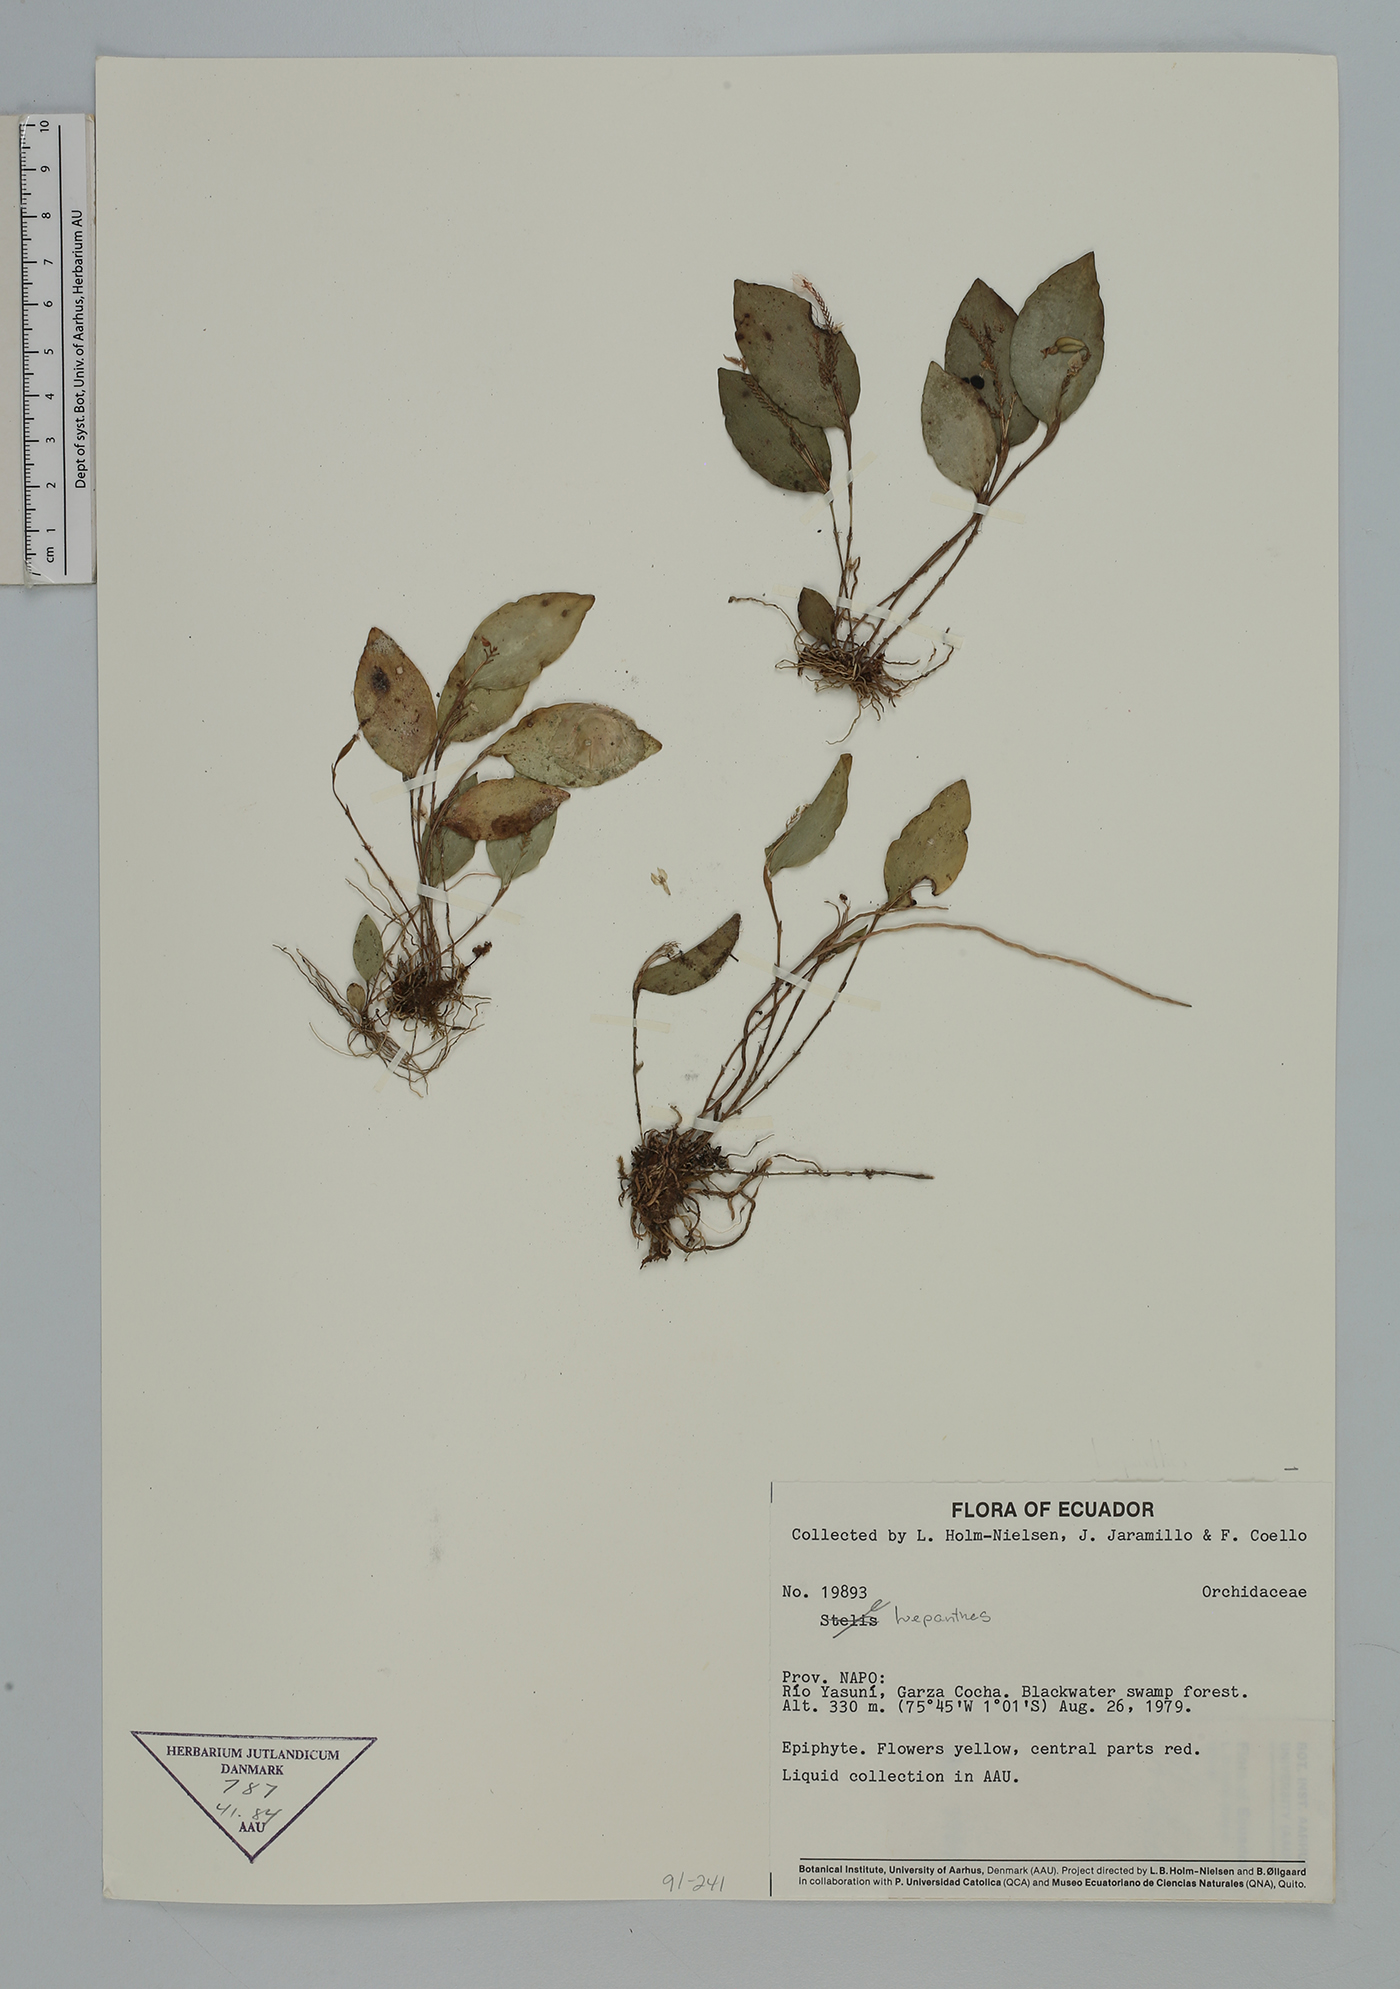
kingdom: Plantae
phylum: Tracheophyta
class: Liliopsida
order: Asparagales
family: Orchidaceae
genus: Lepanthes
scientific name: Lepanthes
